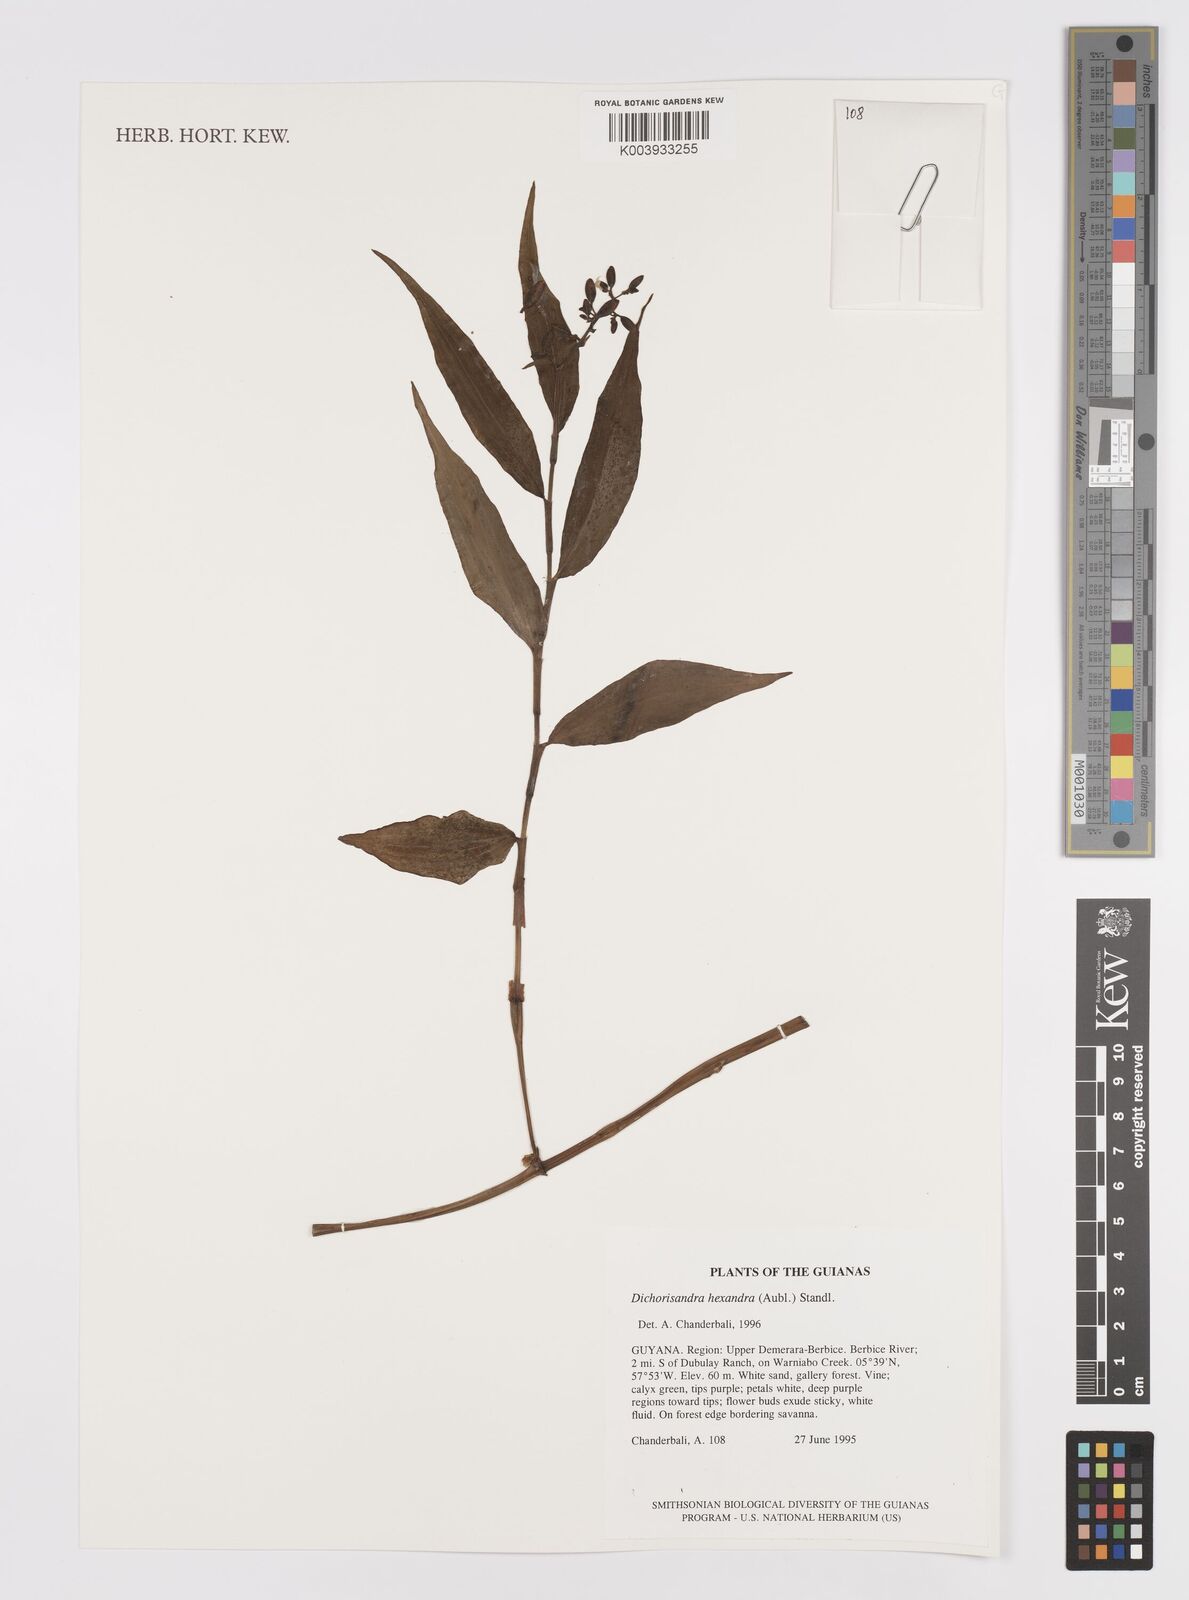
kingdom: Plantae
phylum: Tracheophyta
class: Liliopsida
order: Commelinales
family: Commelinaceae
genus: Dichorisandra
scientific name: Dichorisandra hexandra
